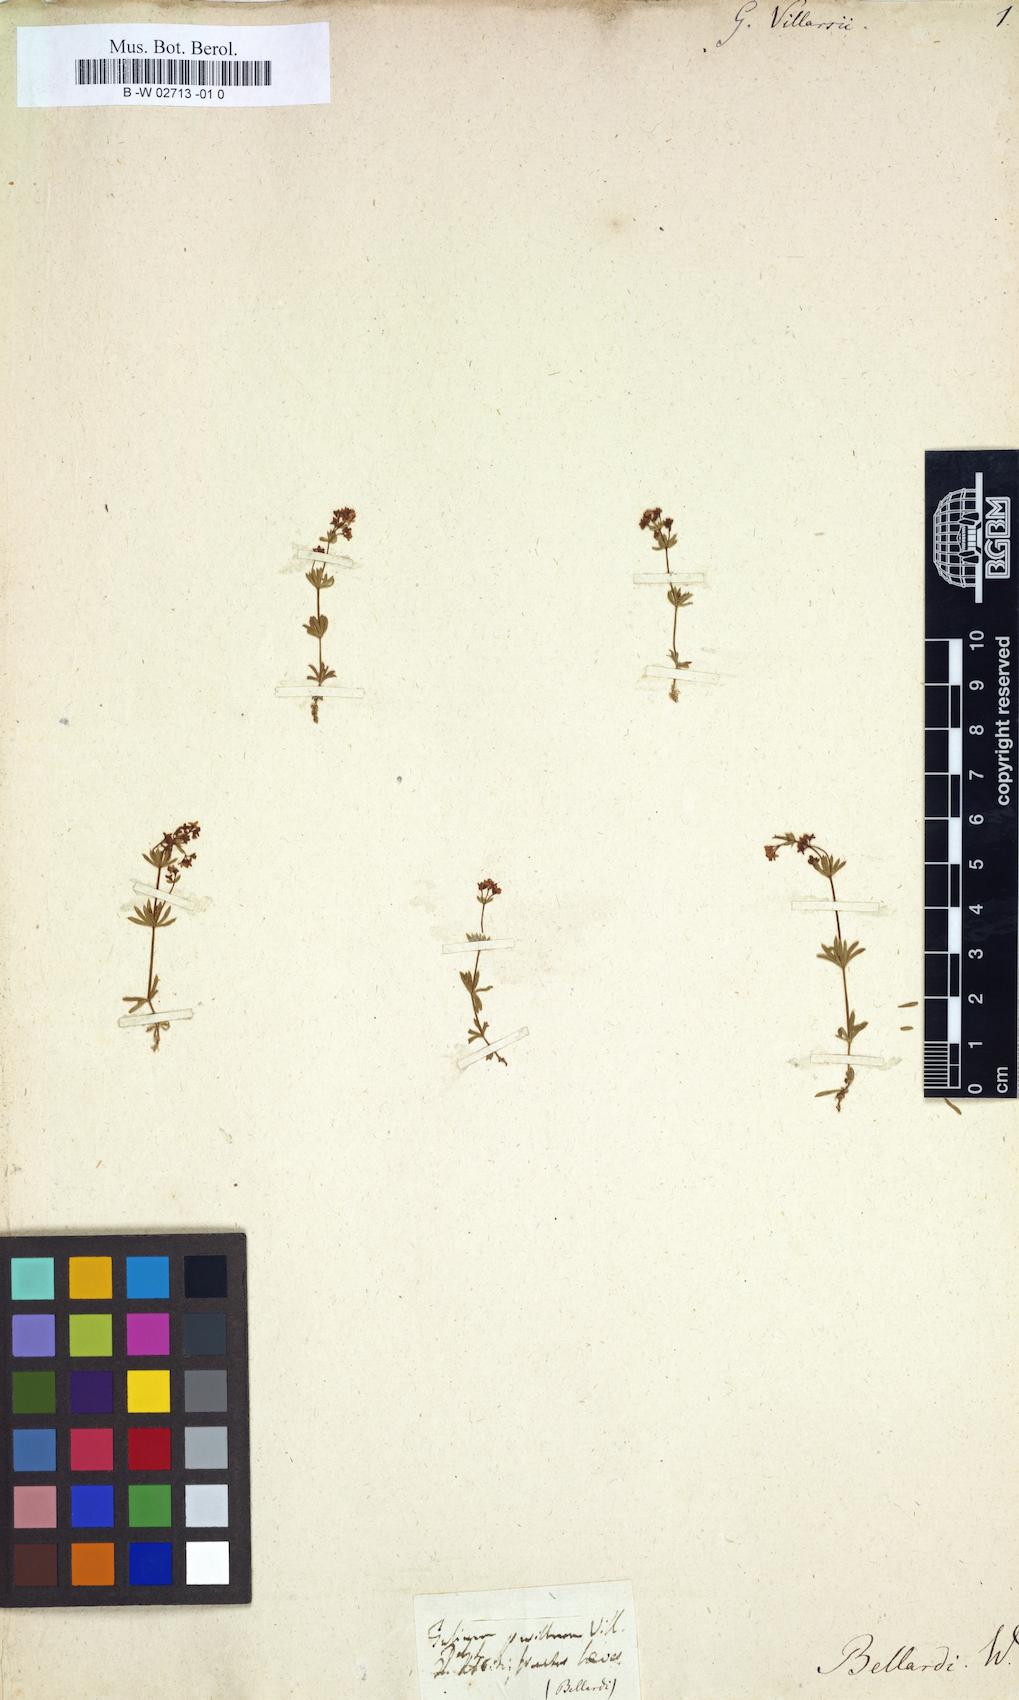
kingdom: Plantae
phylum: Tracheophyta
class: Magnoliopsida
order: Gentianales
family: Rubiaceae
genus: Galium
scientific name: Galium megalospermum
